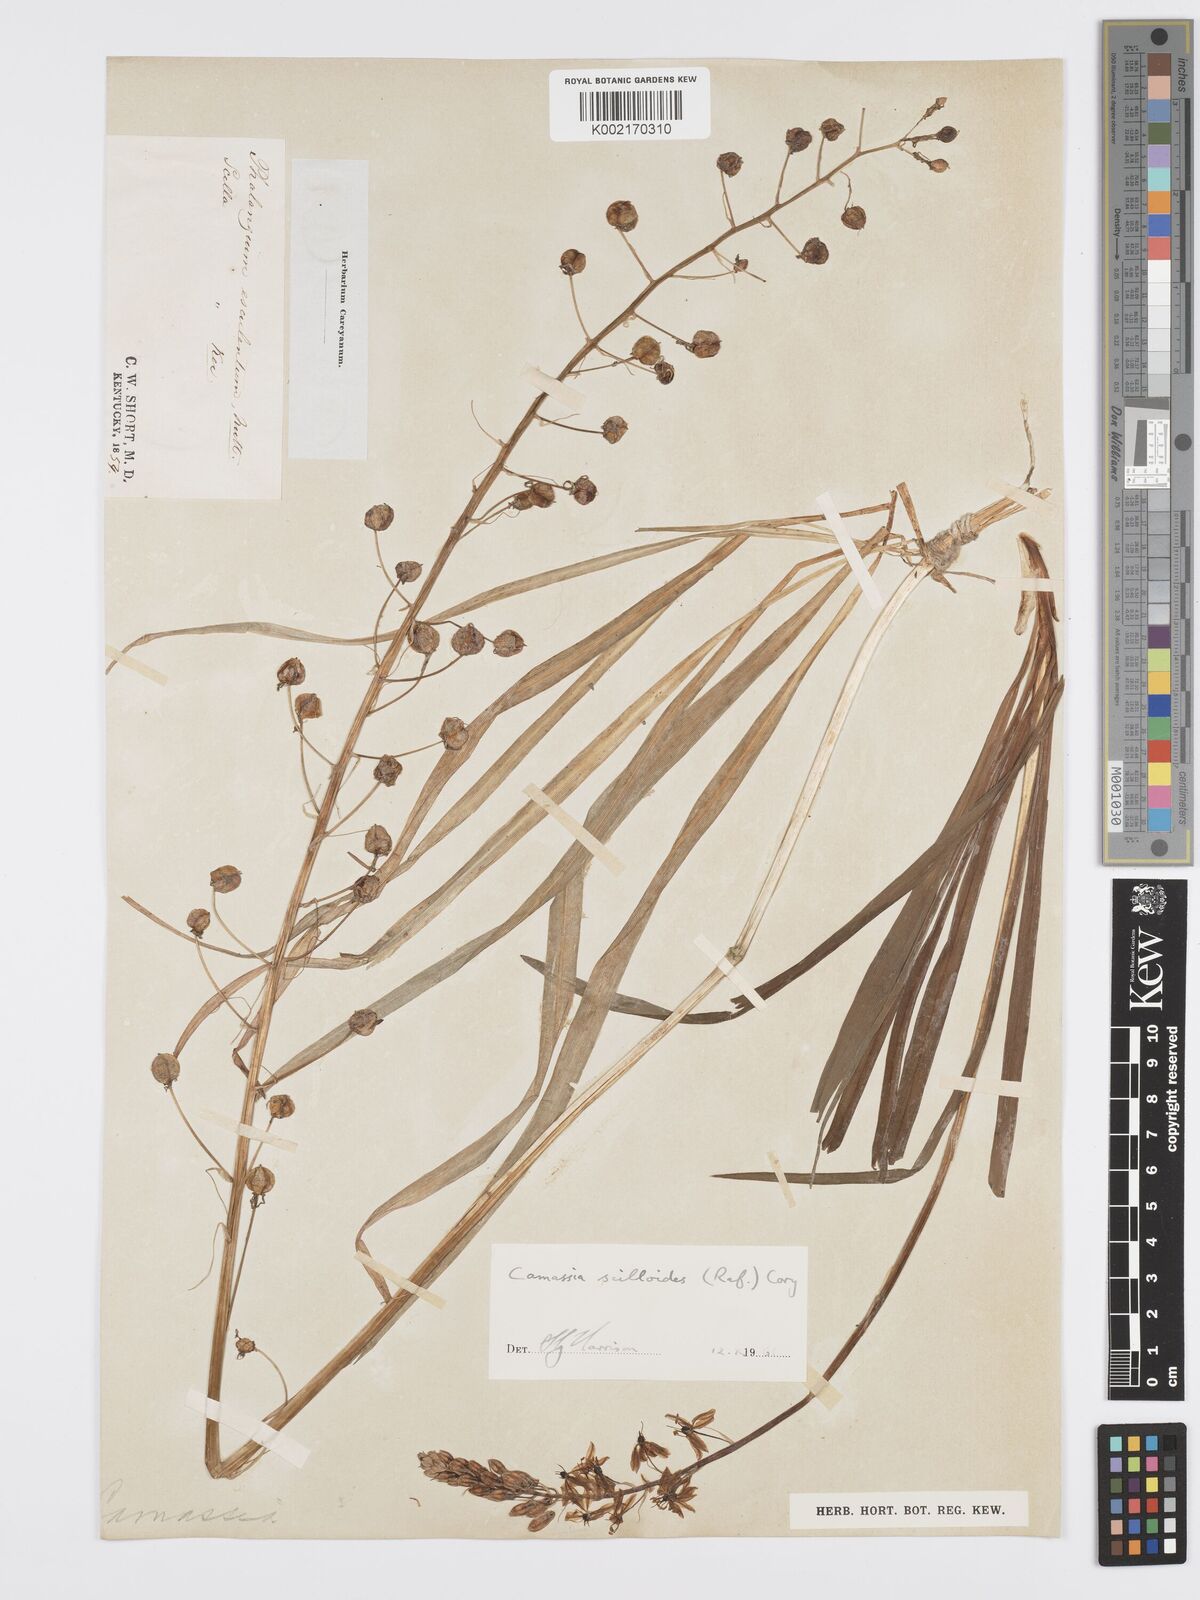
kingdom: Plantae
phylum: Tracheophyta
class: Liliopsida
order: Asparagales
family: Asparagaceae
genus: Camassia
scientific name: Camassia scilloides
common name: Wild hyacinth
